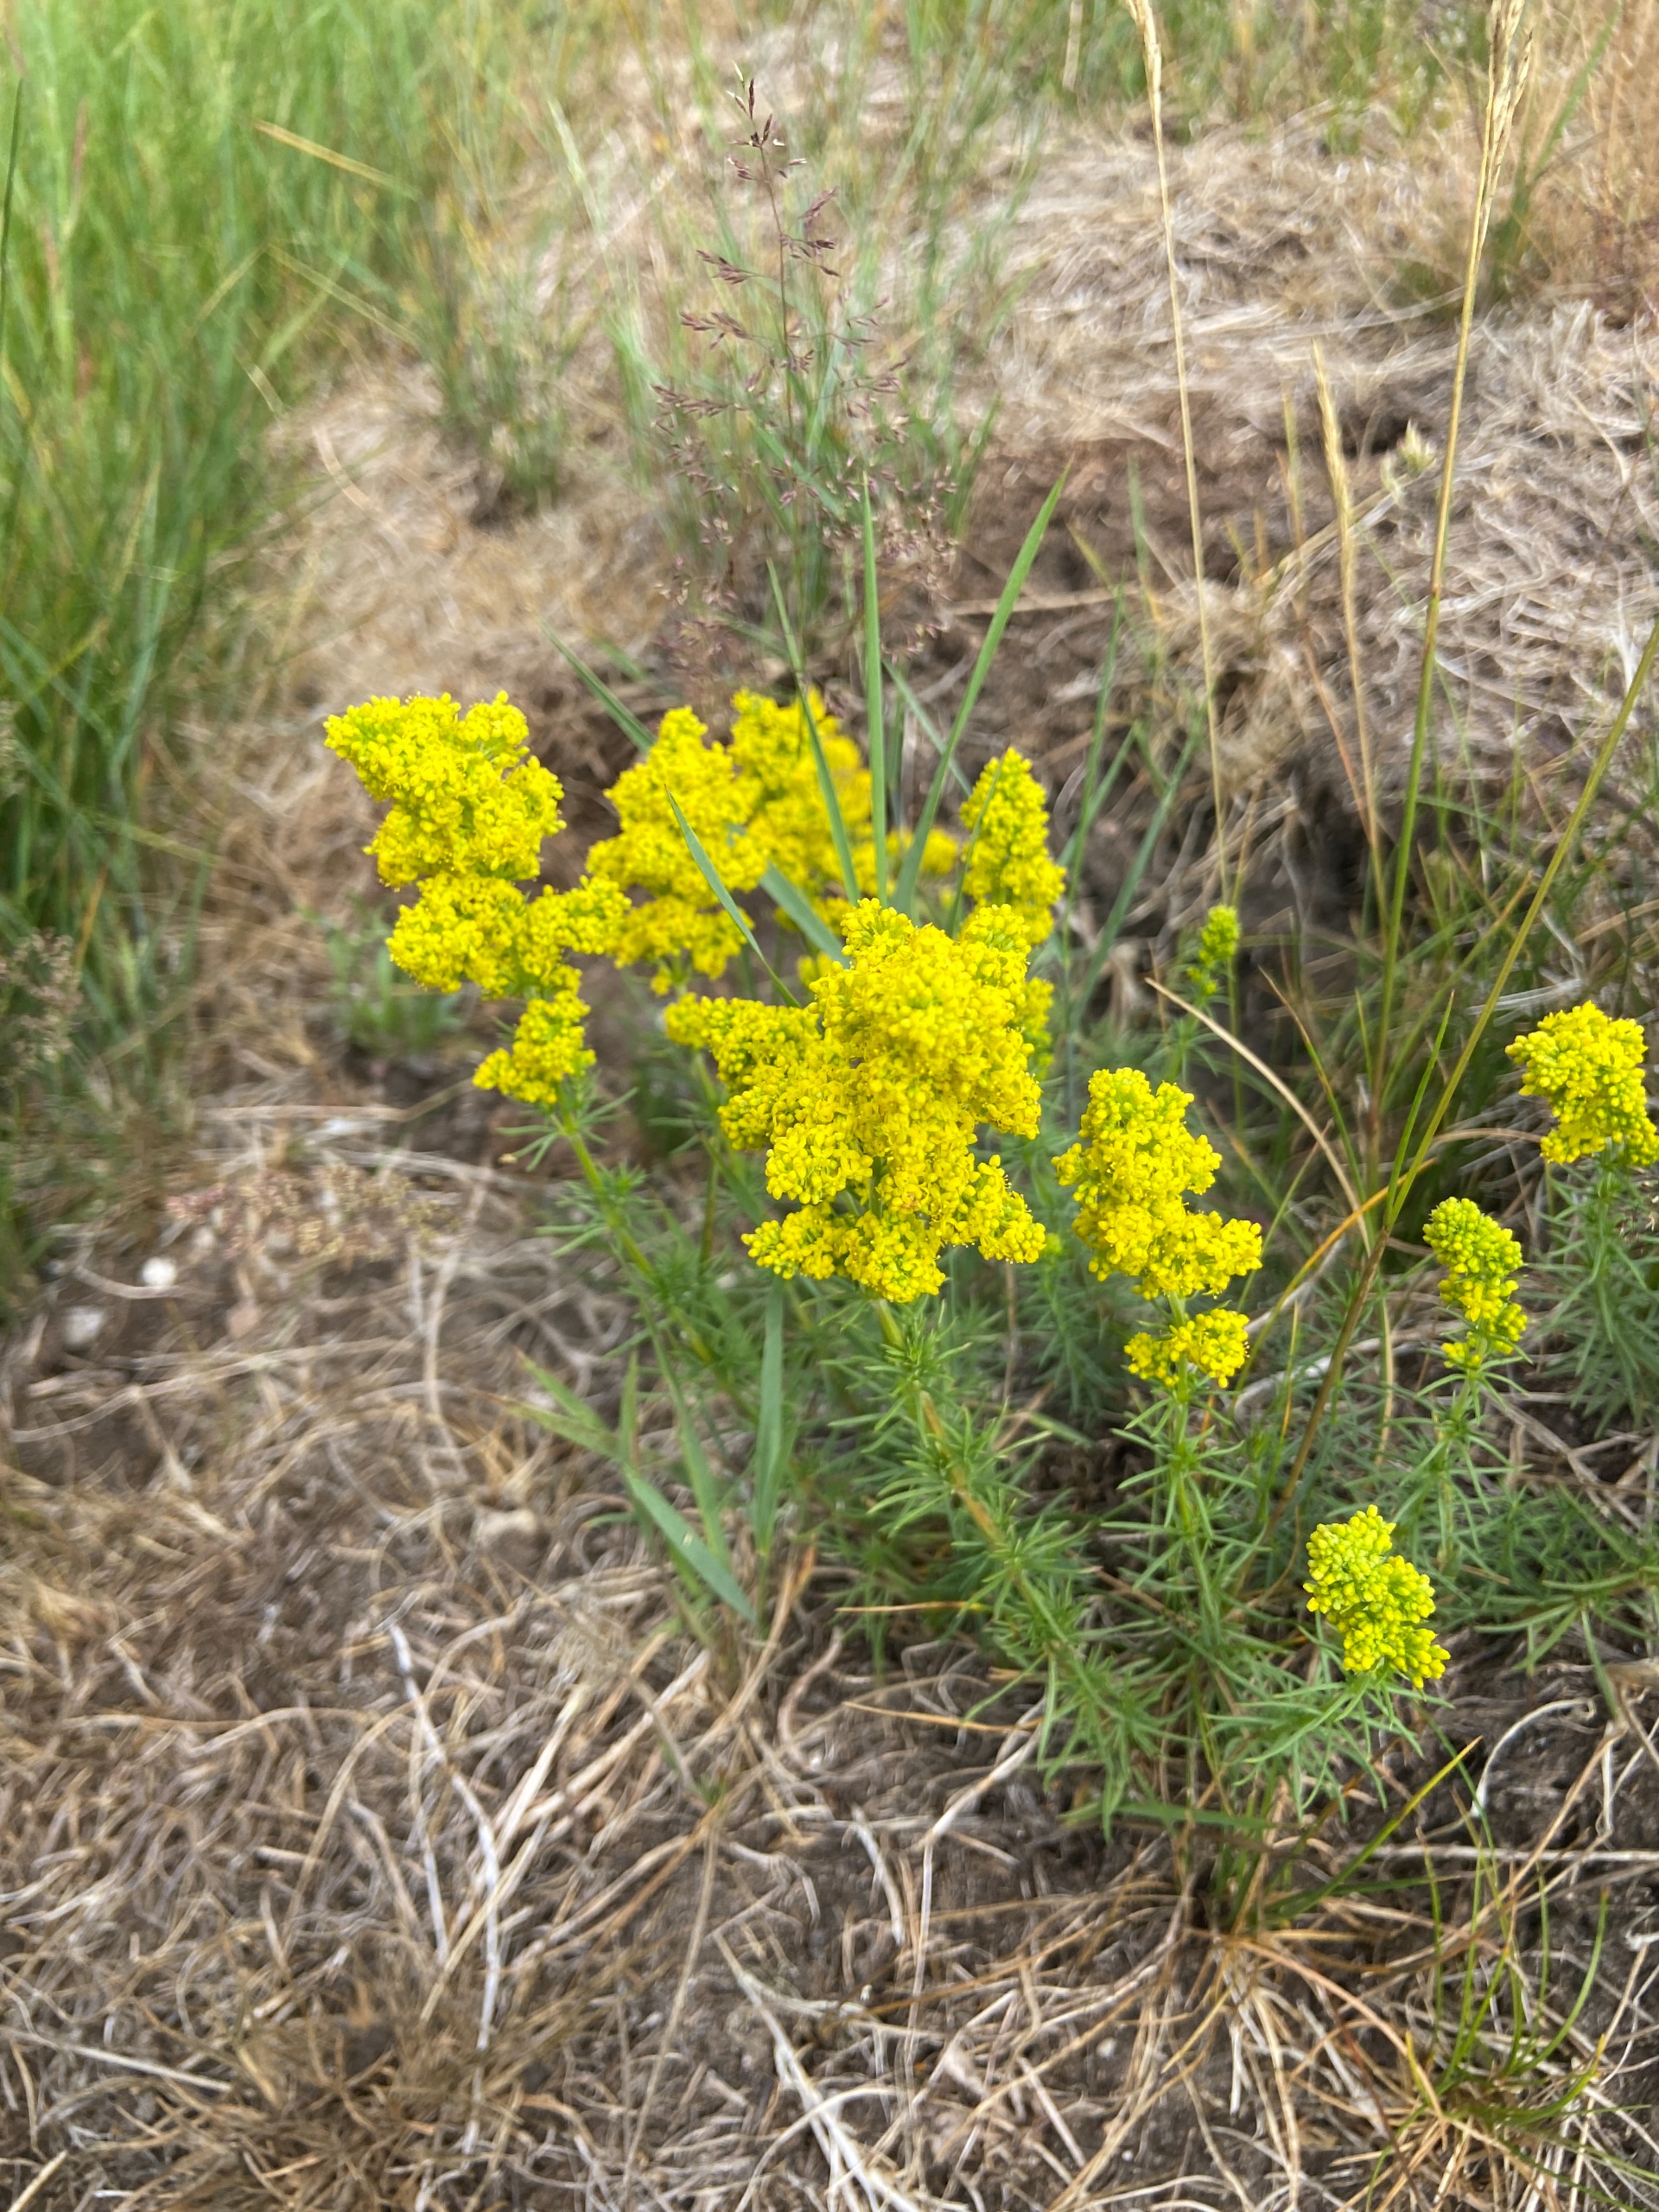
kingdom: Plantae
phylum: Tracheophyta
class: Magnoliopsida
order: Gentianales
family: Rubiaceae
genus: Galium
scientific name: Galium verum
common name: Gul snerre
